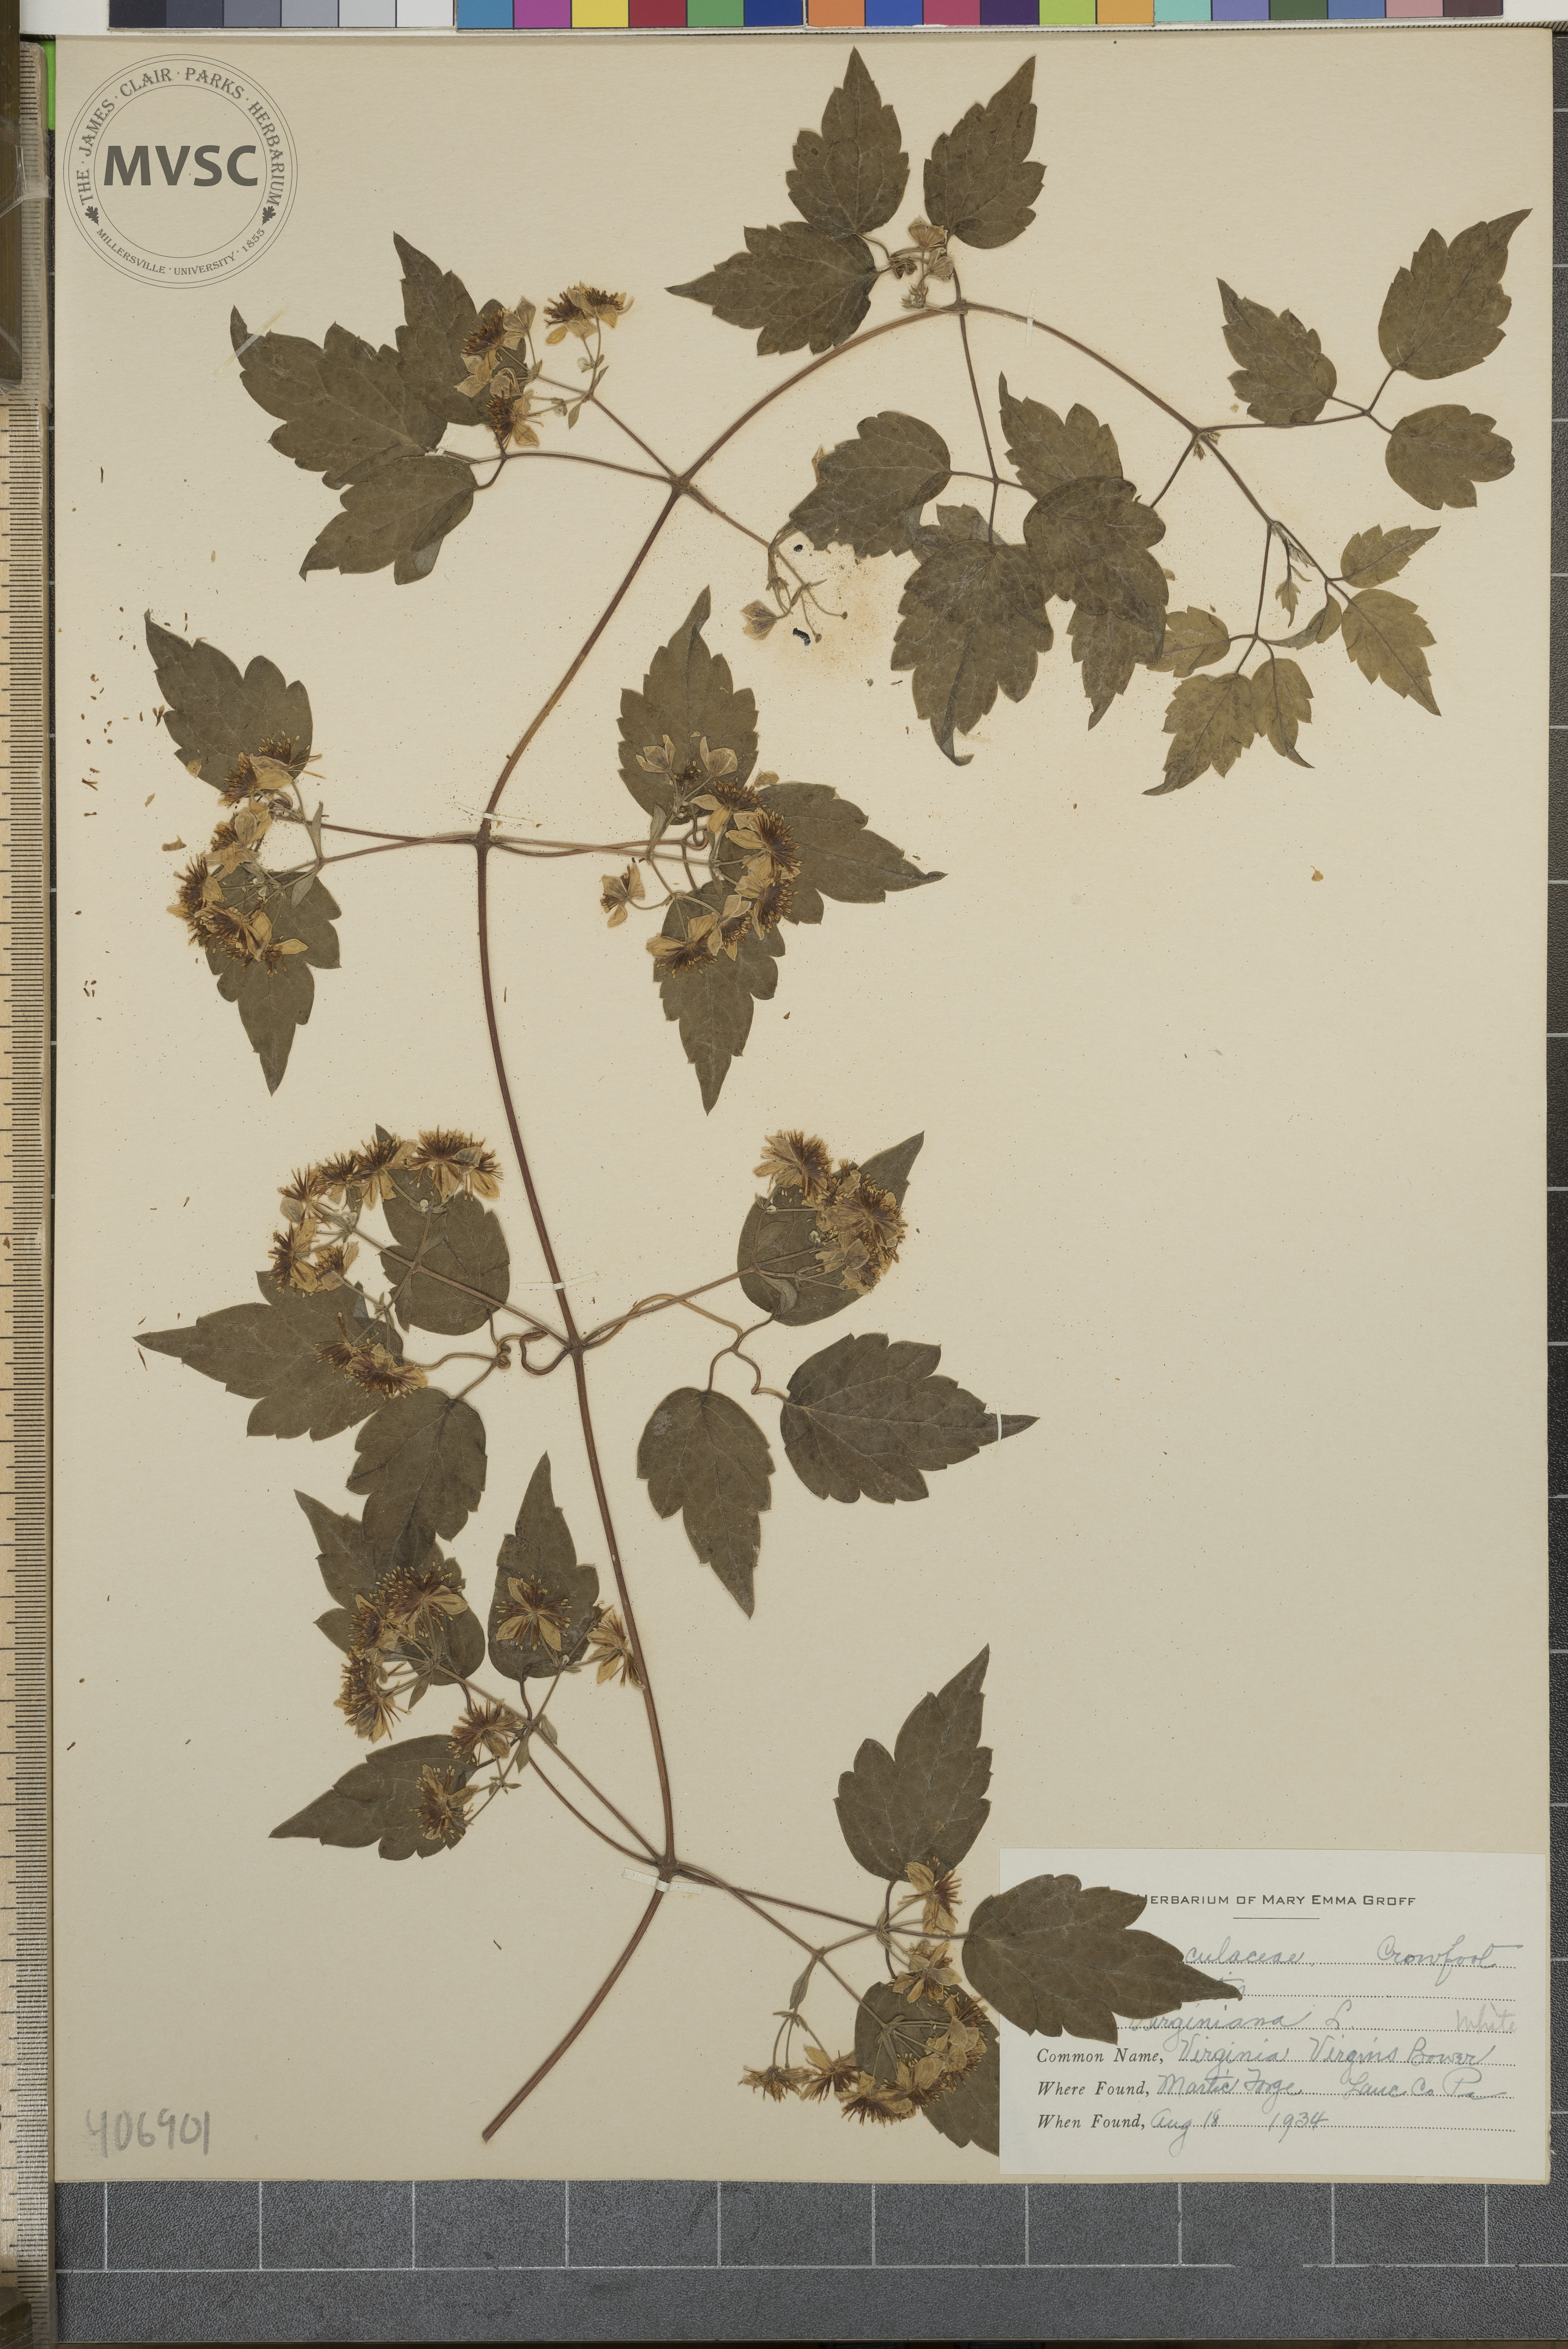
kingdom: Plantae
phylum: Tracheophyta
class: Magnoliopsida
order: Ranunculales
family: Ranunculaceae
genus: Clematis
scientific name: Clematis virginiana
